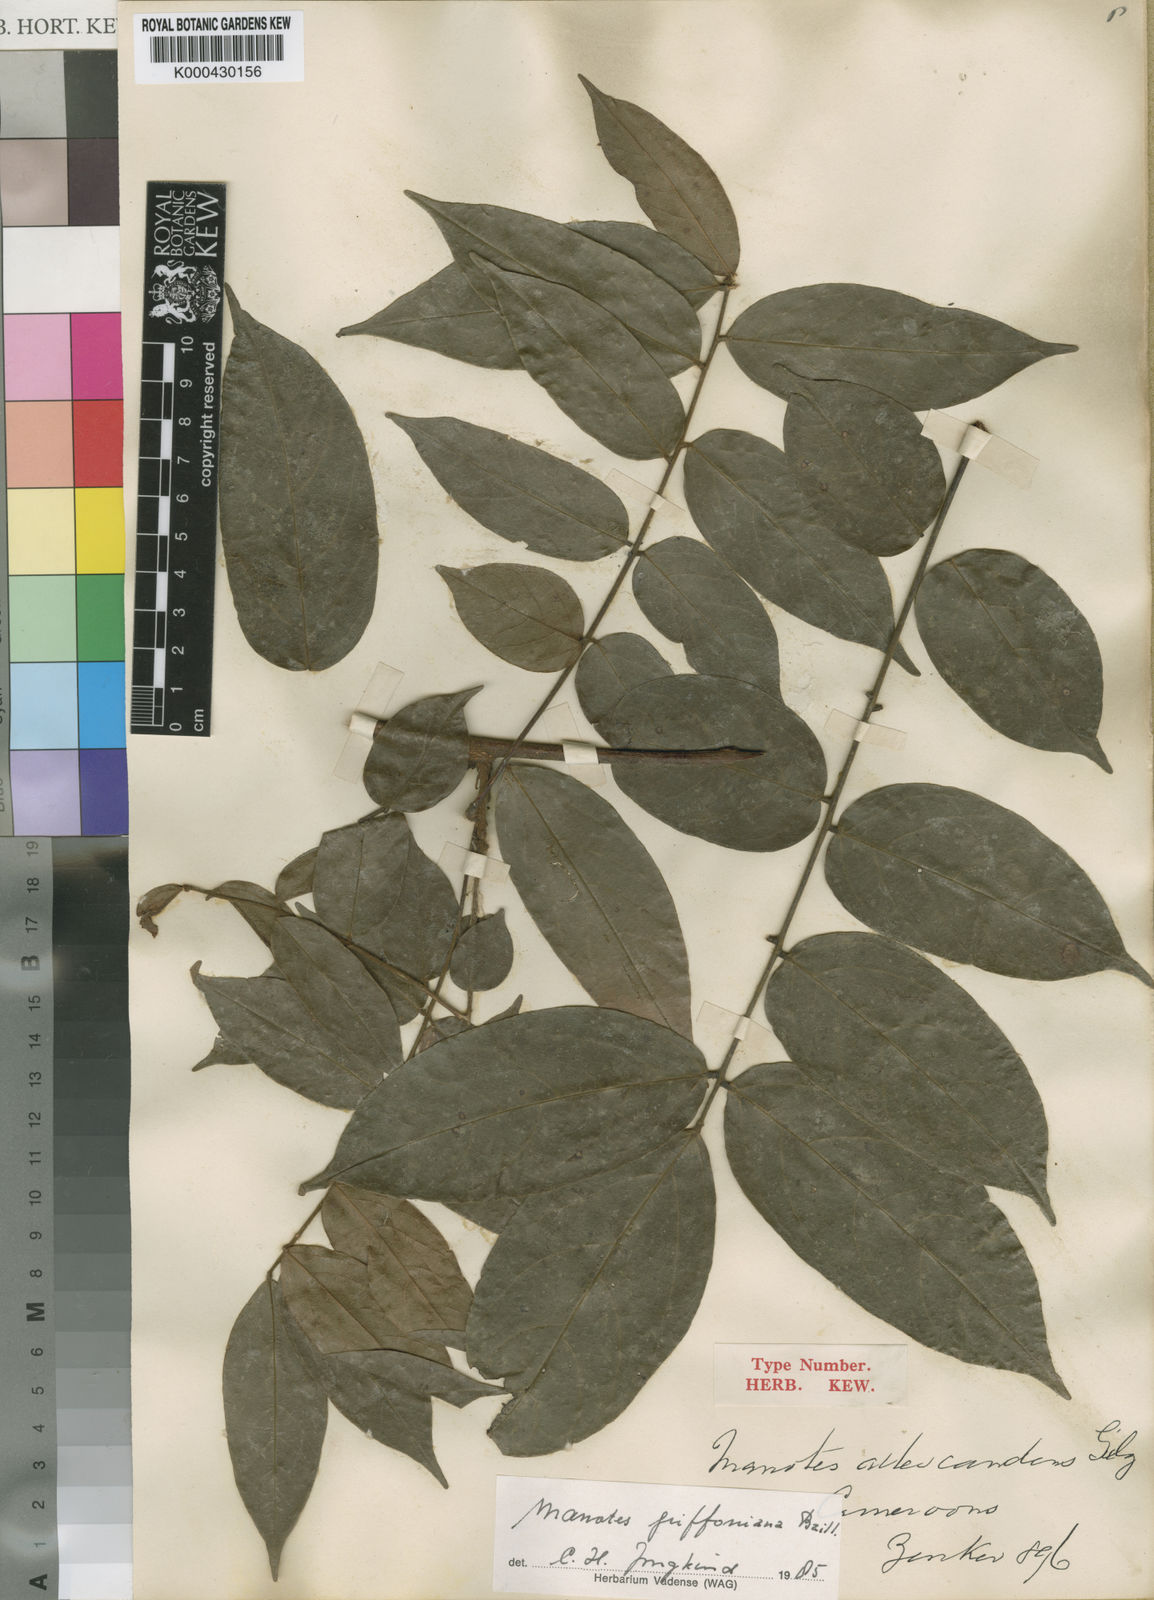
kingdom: Plantae
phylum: Tracheophyta
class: Magnoliopsida
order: Oxalidales
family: Connaraceae
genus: Manotes
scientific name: Manotes griffoniana
